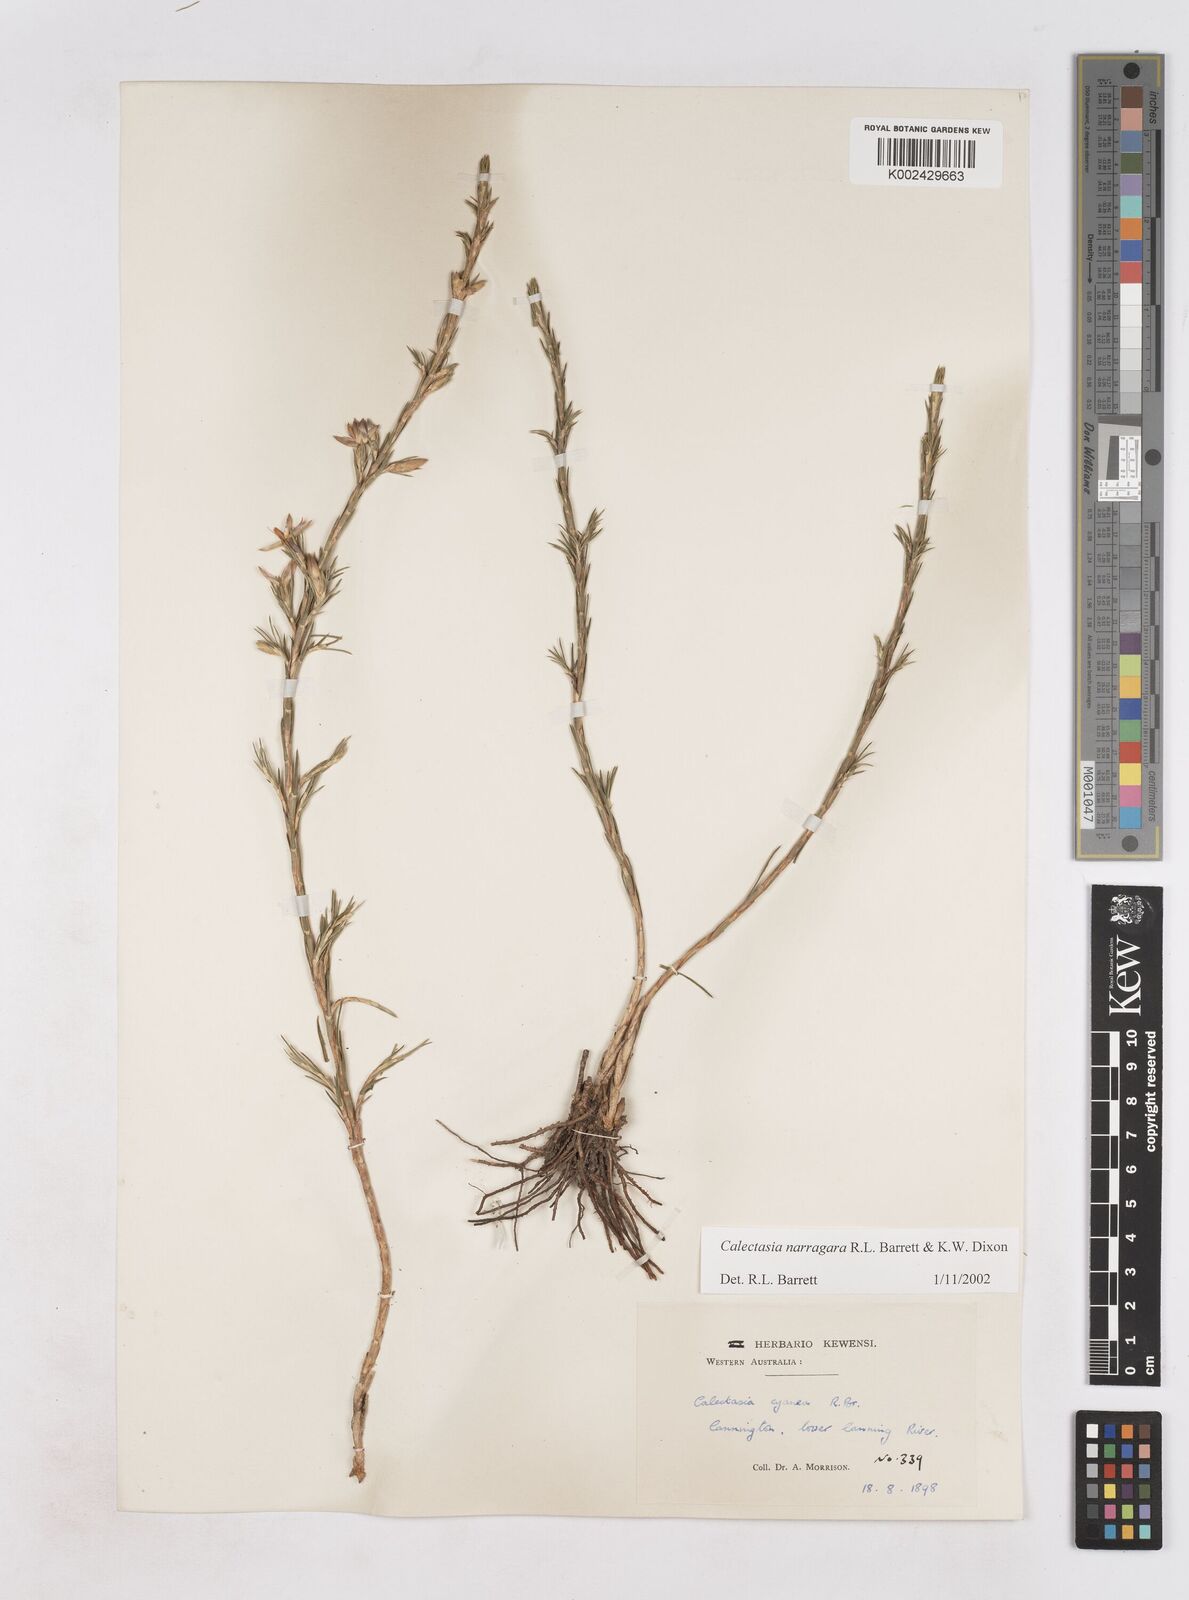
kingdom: Plantae
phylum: Tracheophyta
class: Liliopsida
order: Arecales
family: Dasypogonaceae
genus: Calectasia
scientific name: Calectasia narragara
